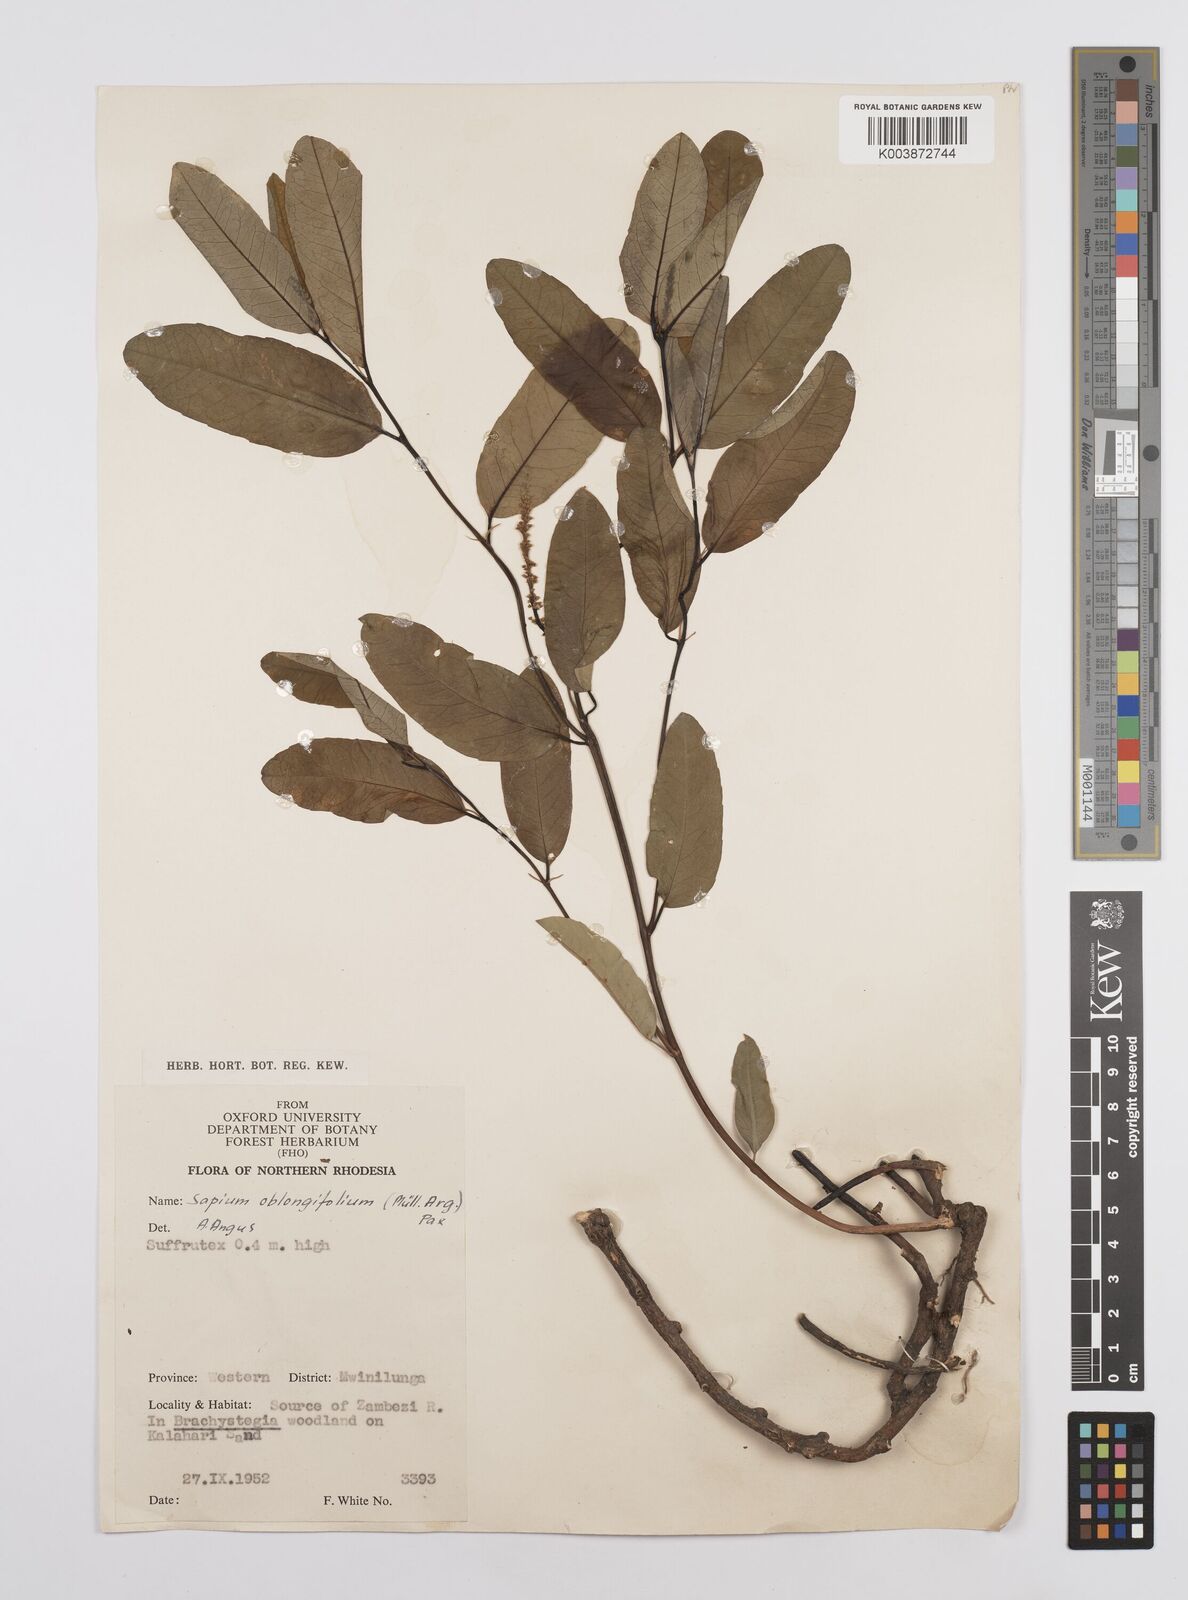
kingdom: Plantae
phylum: Tracheophyta
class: Magnoliopsida
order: Malpighiales
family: Euphorbiaceae
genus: Sclerocroton
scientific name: Sclerocroton oblongifolius
